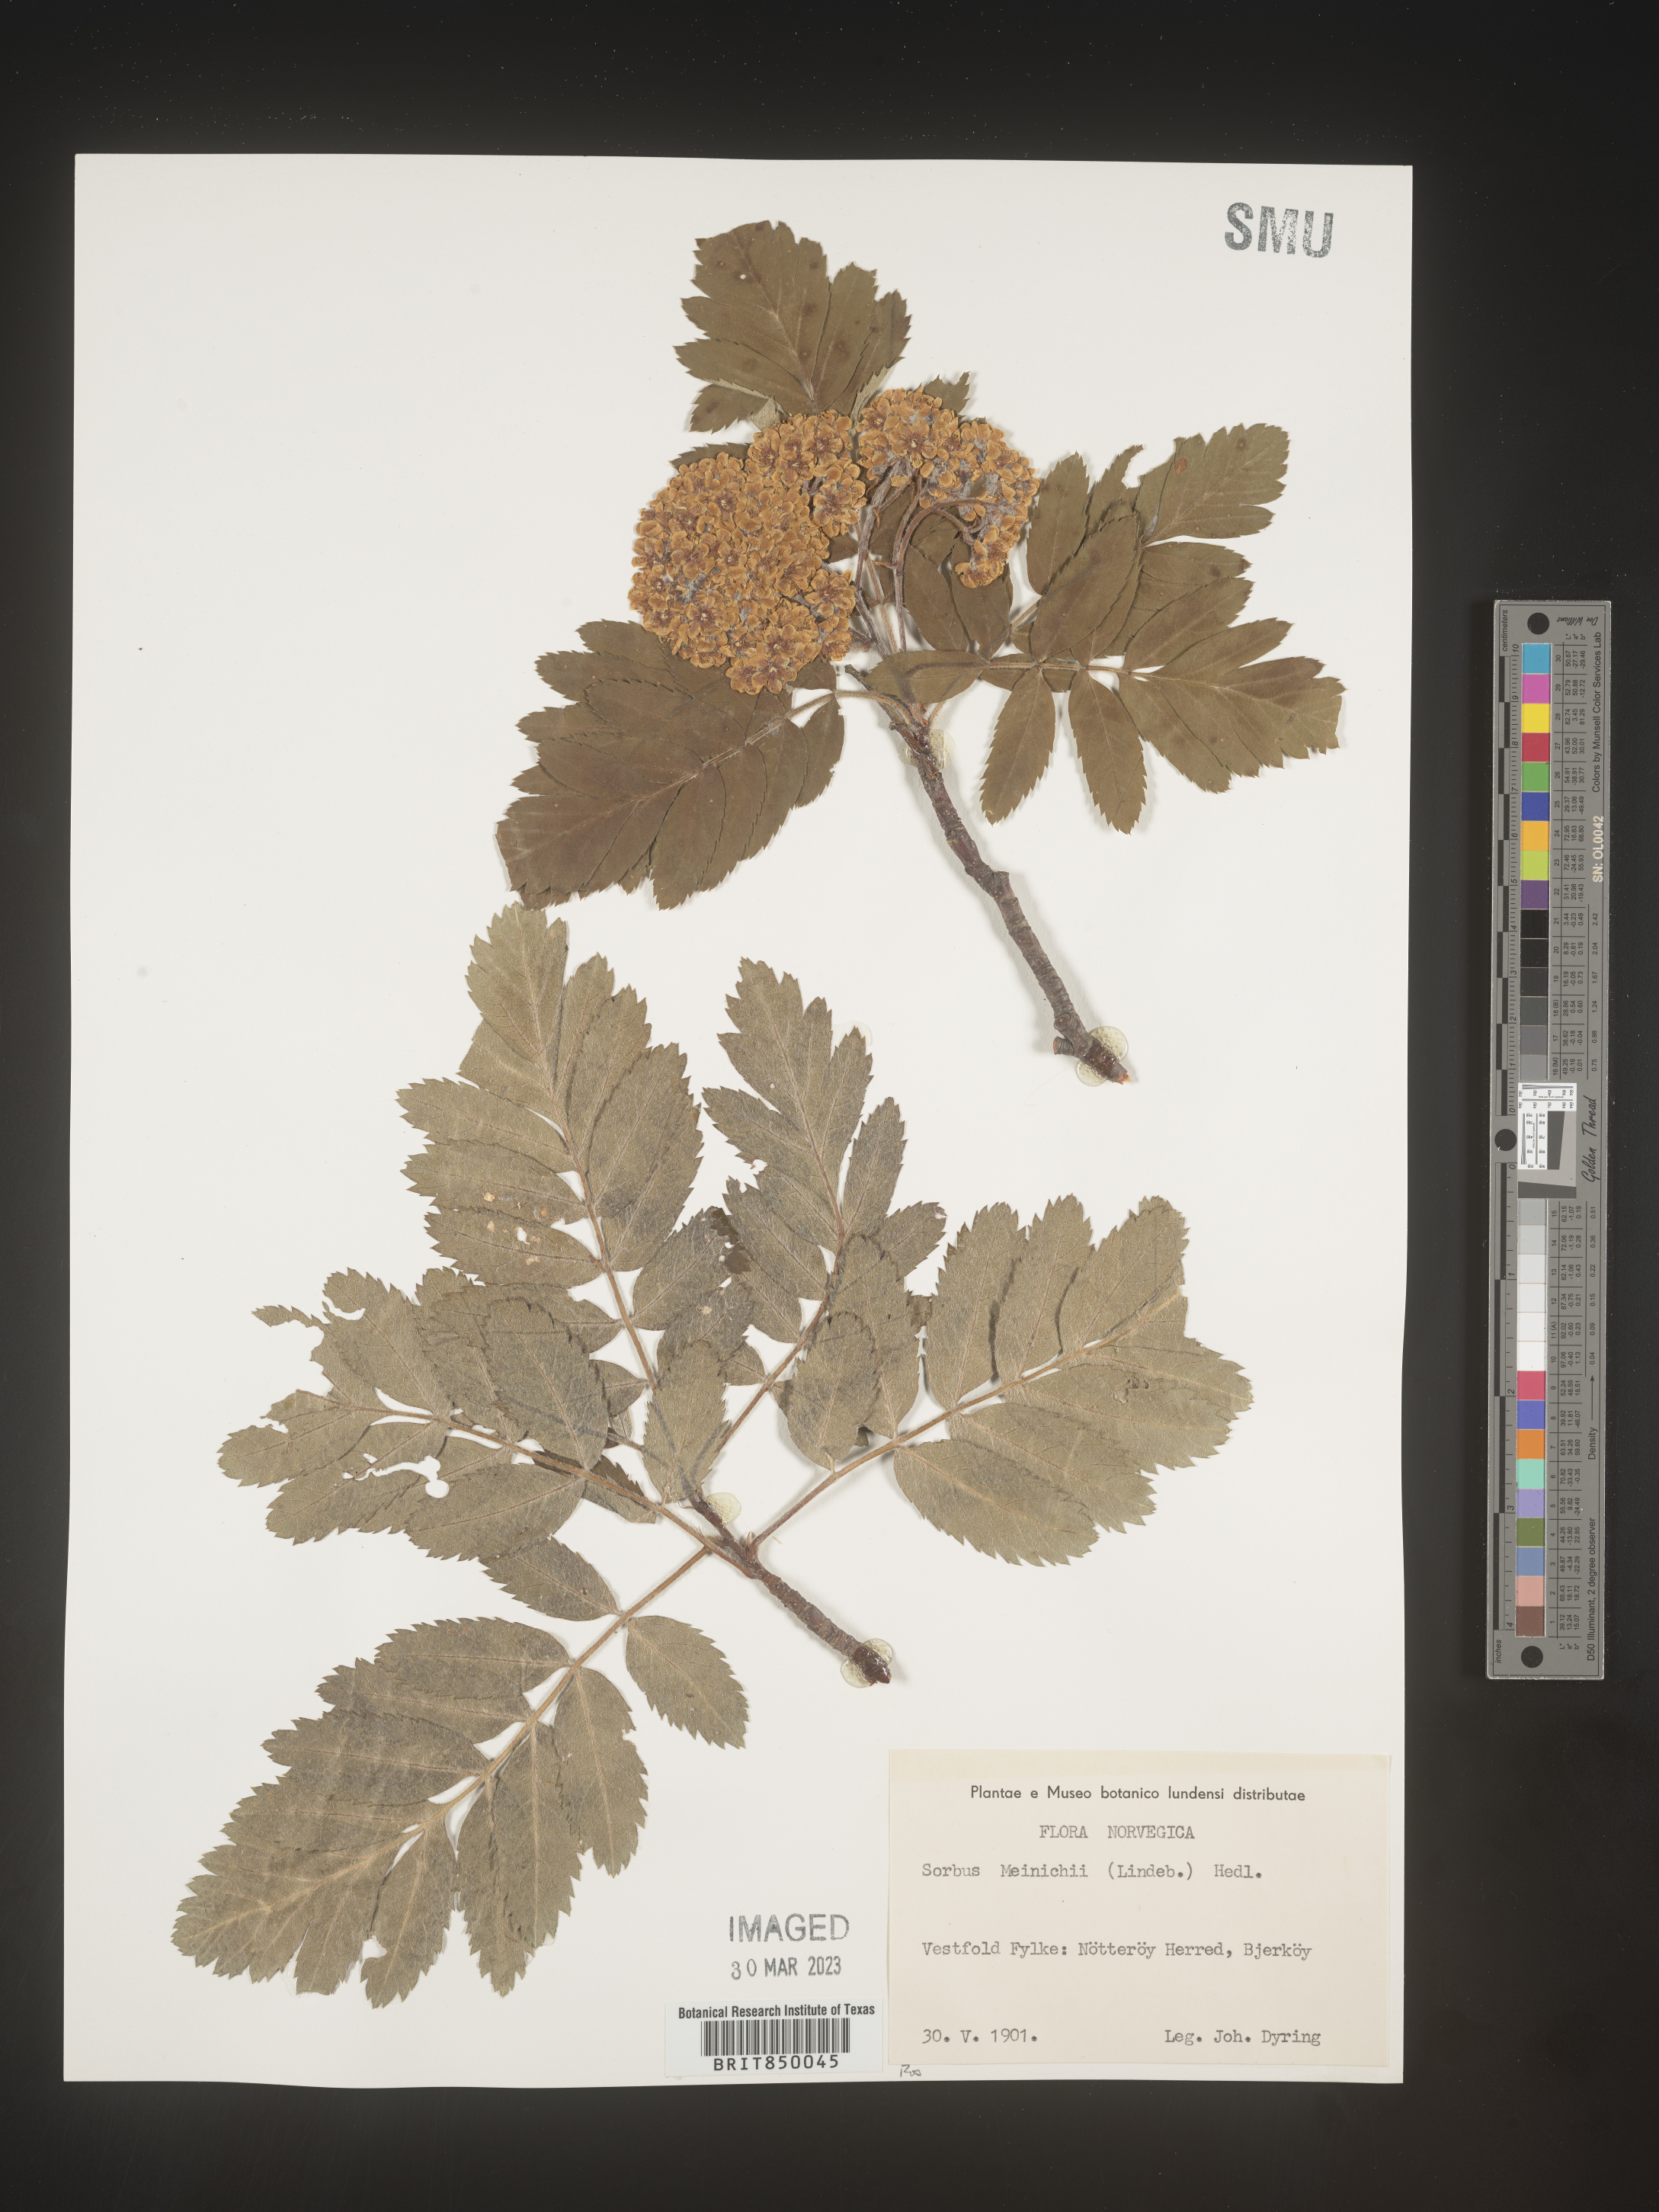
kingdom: Plantae
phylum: Tracheophyta
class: Magnoliopsida
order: Rosales
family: Rosaceae
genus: Sorbus
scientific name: Sorbus
